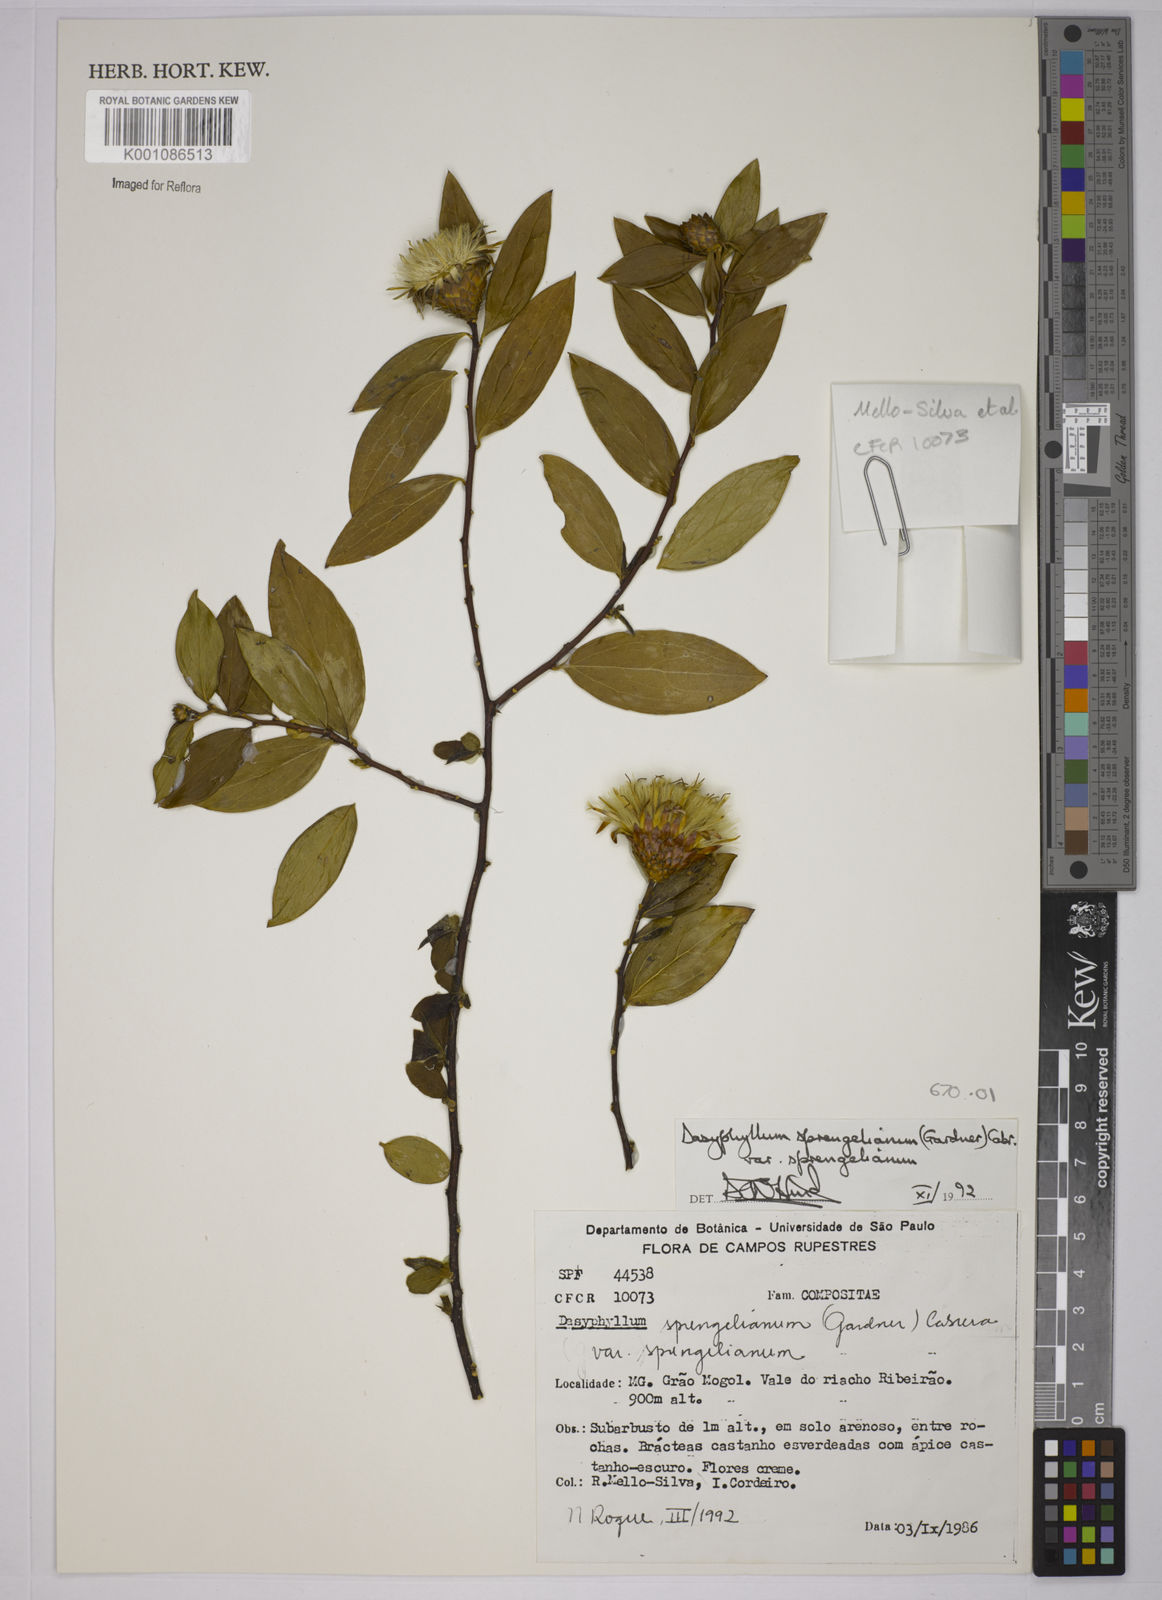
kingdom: Plantae
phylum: Tracheophyta
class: Magnoliopsida
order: Asterales
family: Asteraceae
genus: Dasyphyllum
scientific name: Dasyphyllum sprengelianum
